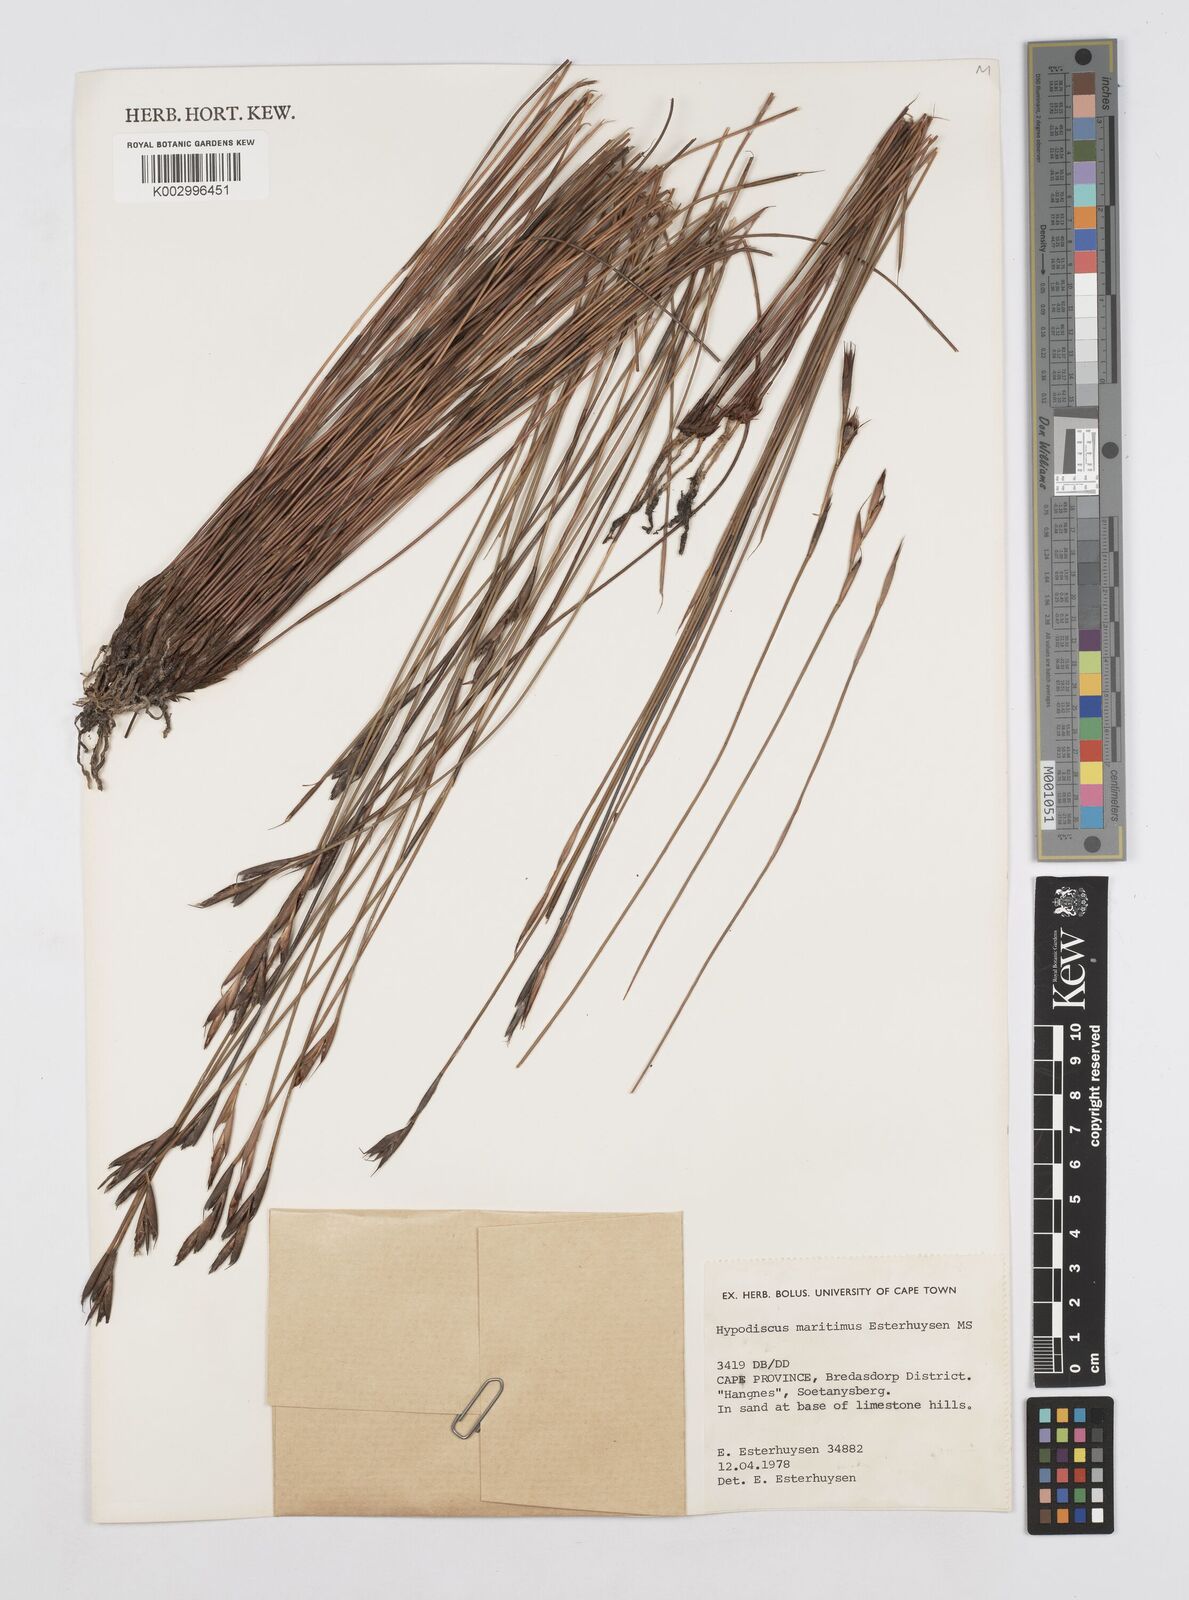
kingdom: Plantae
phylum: Tracheophyta
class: Liliopsida
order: Poales
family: Restionaceae
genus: Hypodiscus
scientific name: Hypodiscus
